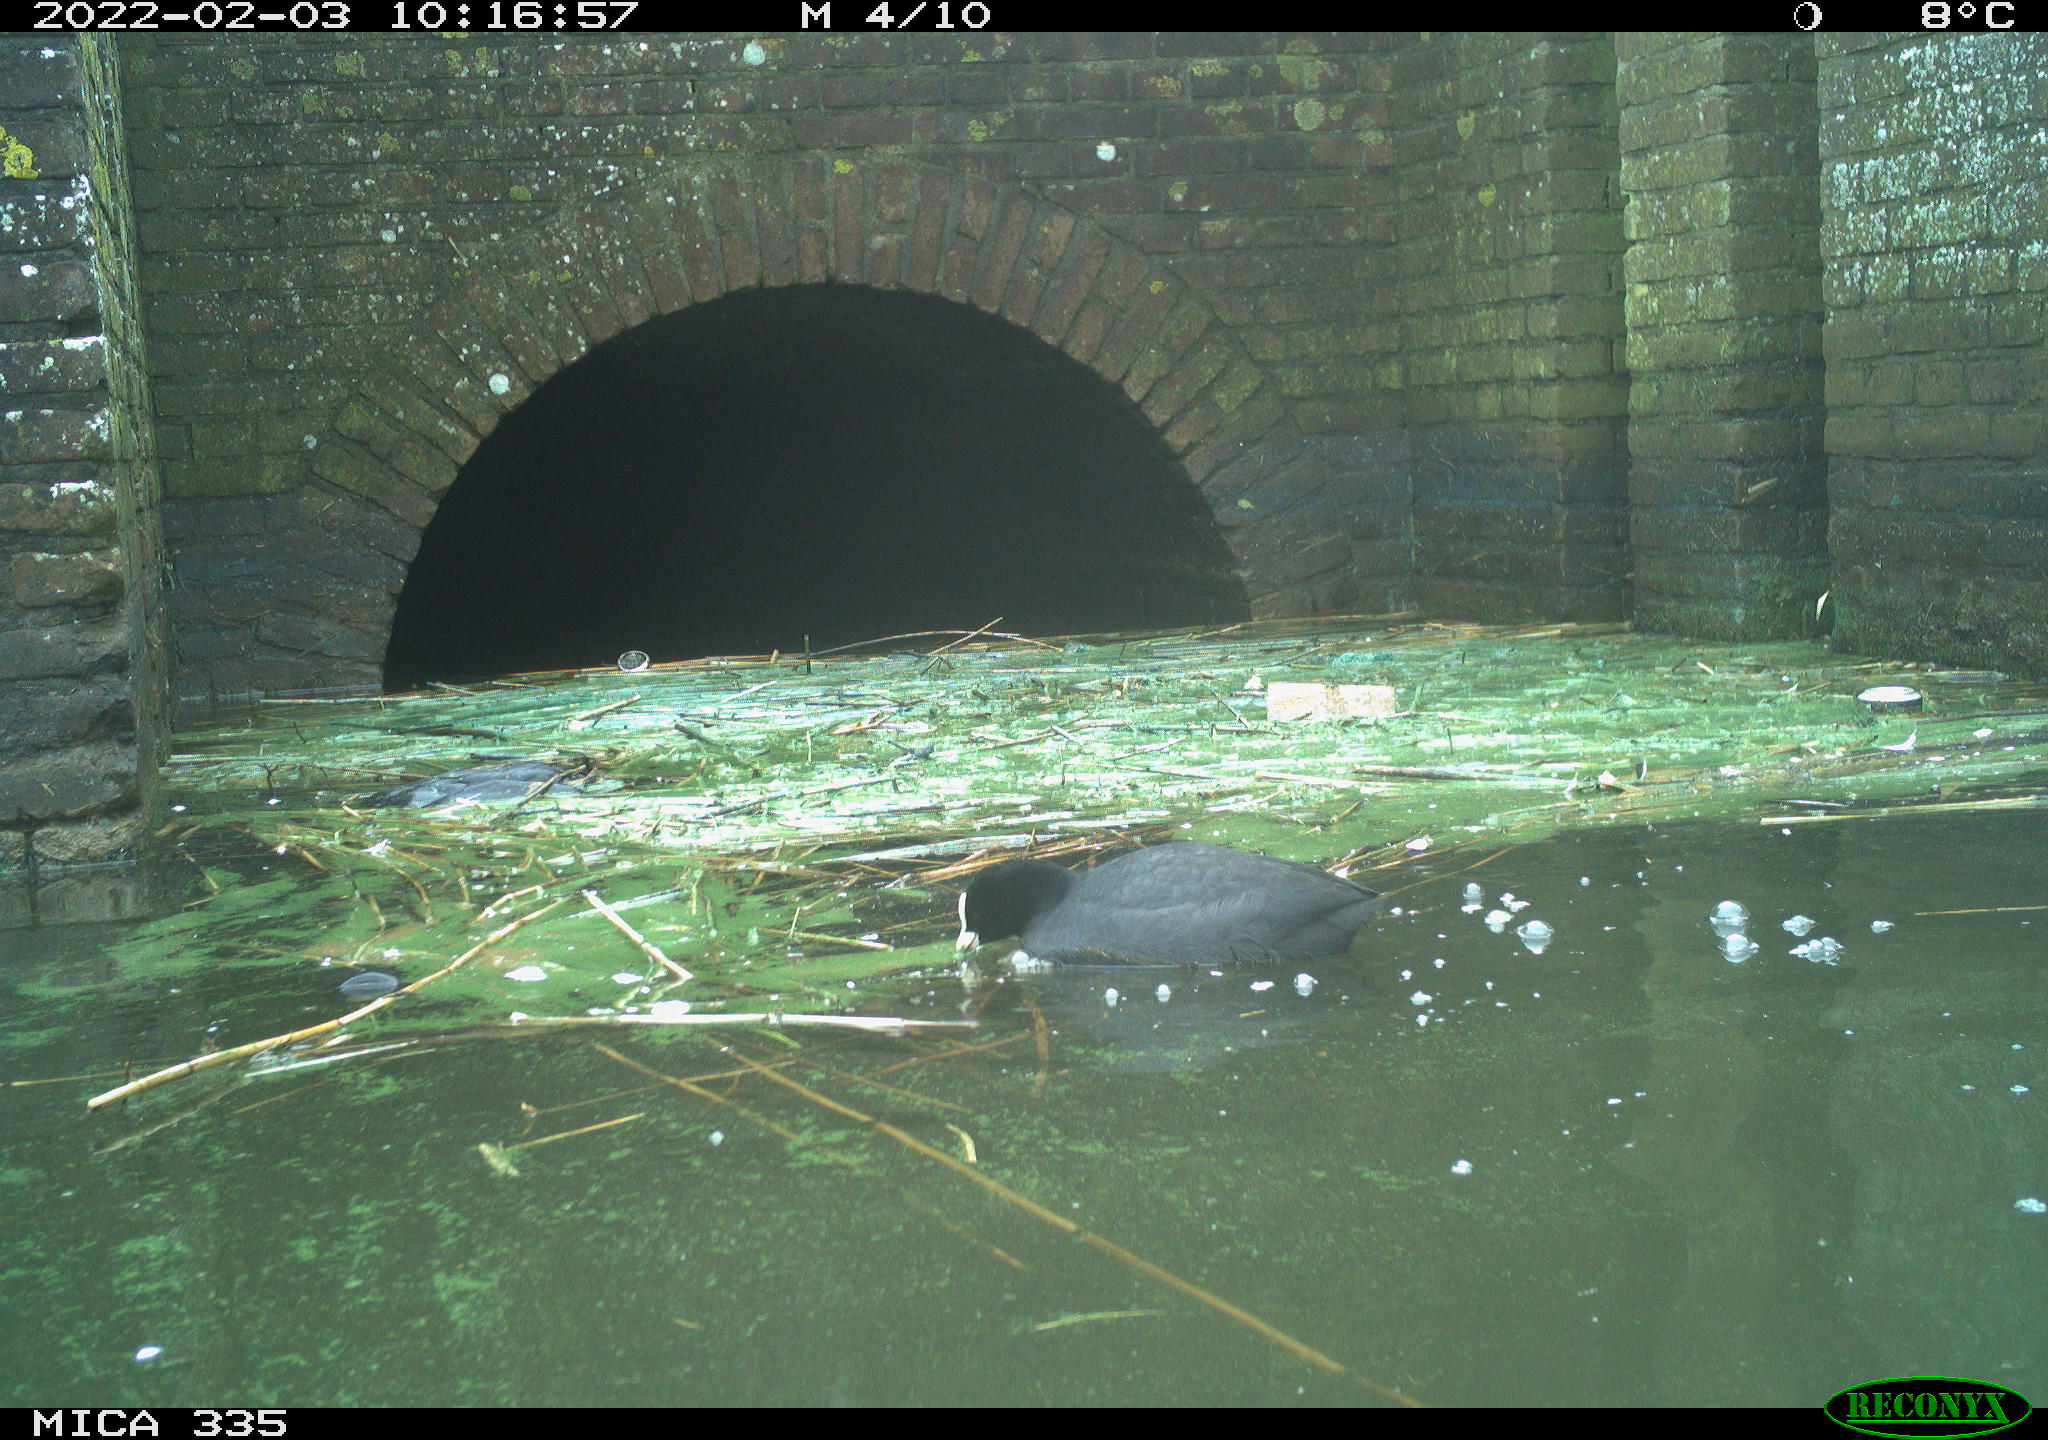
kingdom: Animalia
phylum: Chordata
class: Aves
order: Suliformes
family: Phalacrocoracidae
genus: Phalacrocorax
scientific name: Phalacrocorax carbo
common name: Great cormorant
